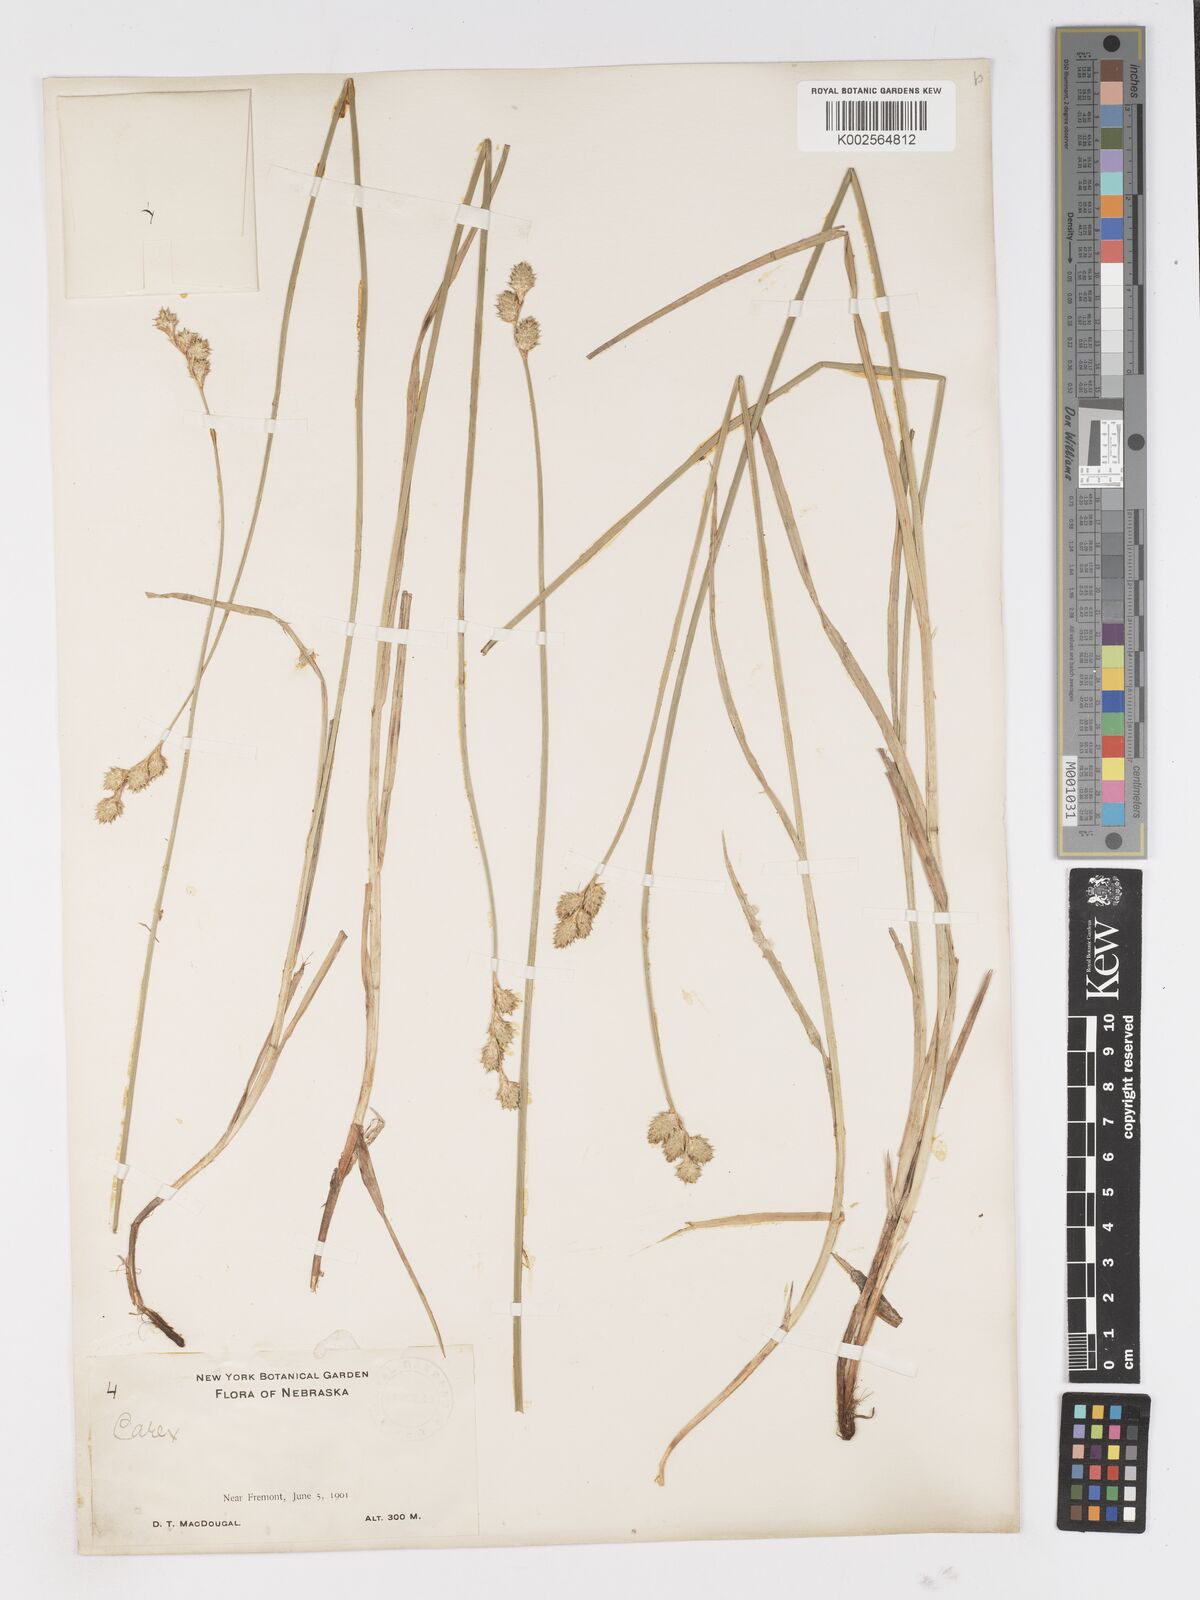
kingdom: Plantae
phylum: Tracheophyta
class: Liliopsida
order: Poales
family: Cyperaceae
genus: Carex
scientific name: Carex
